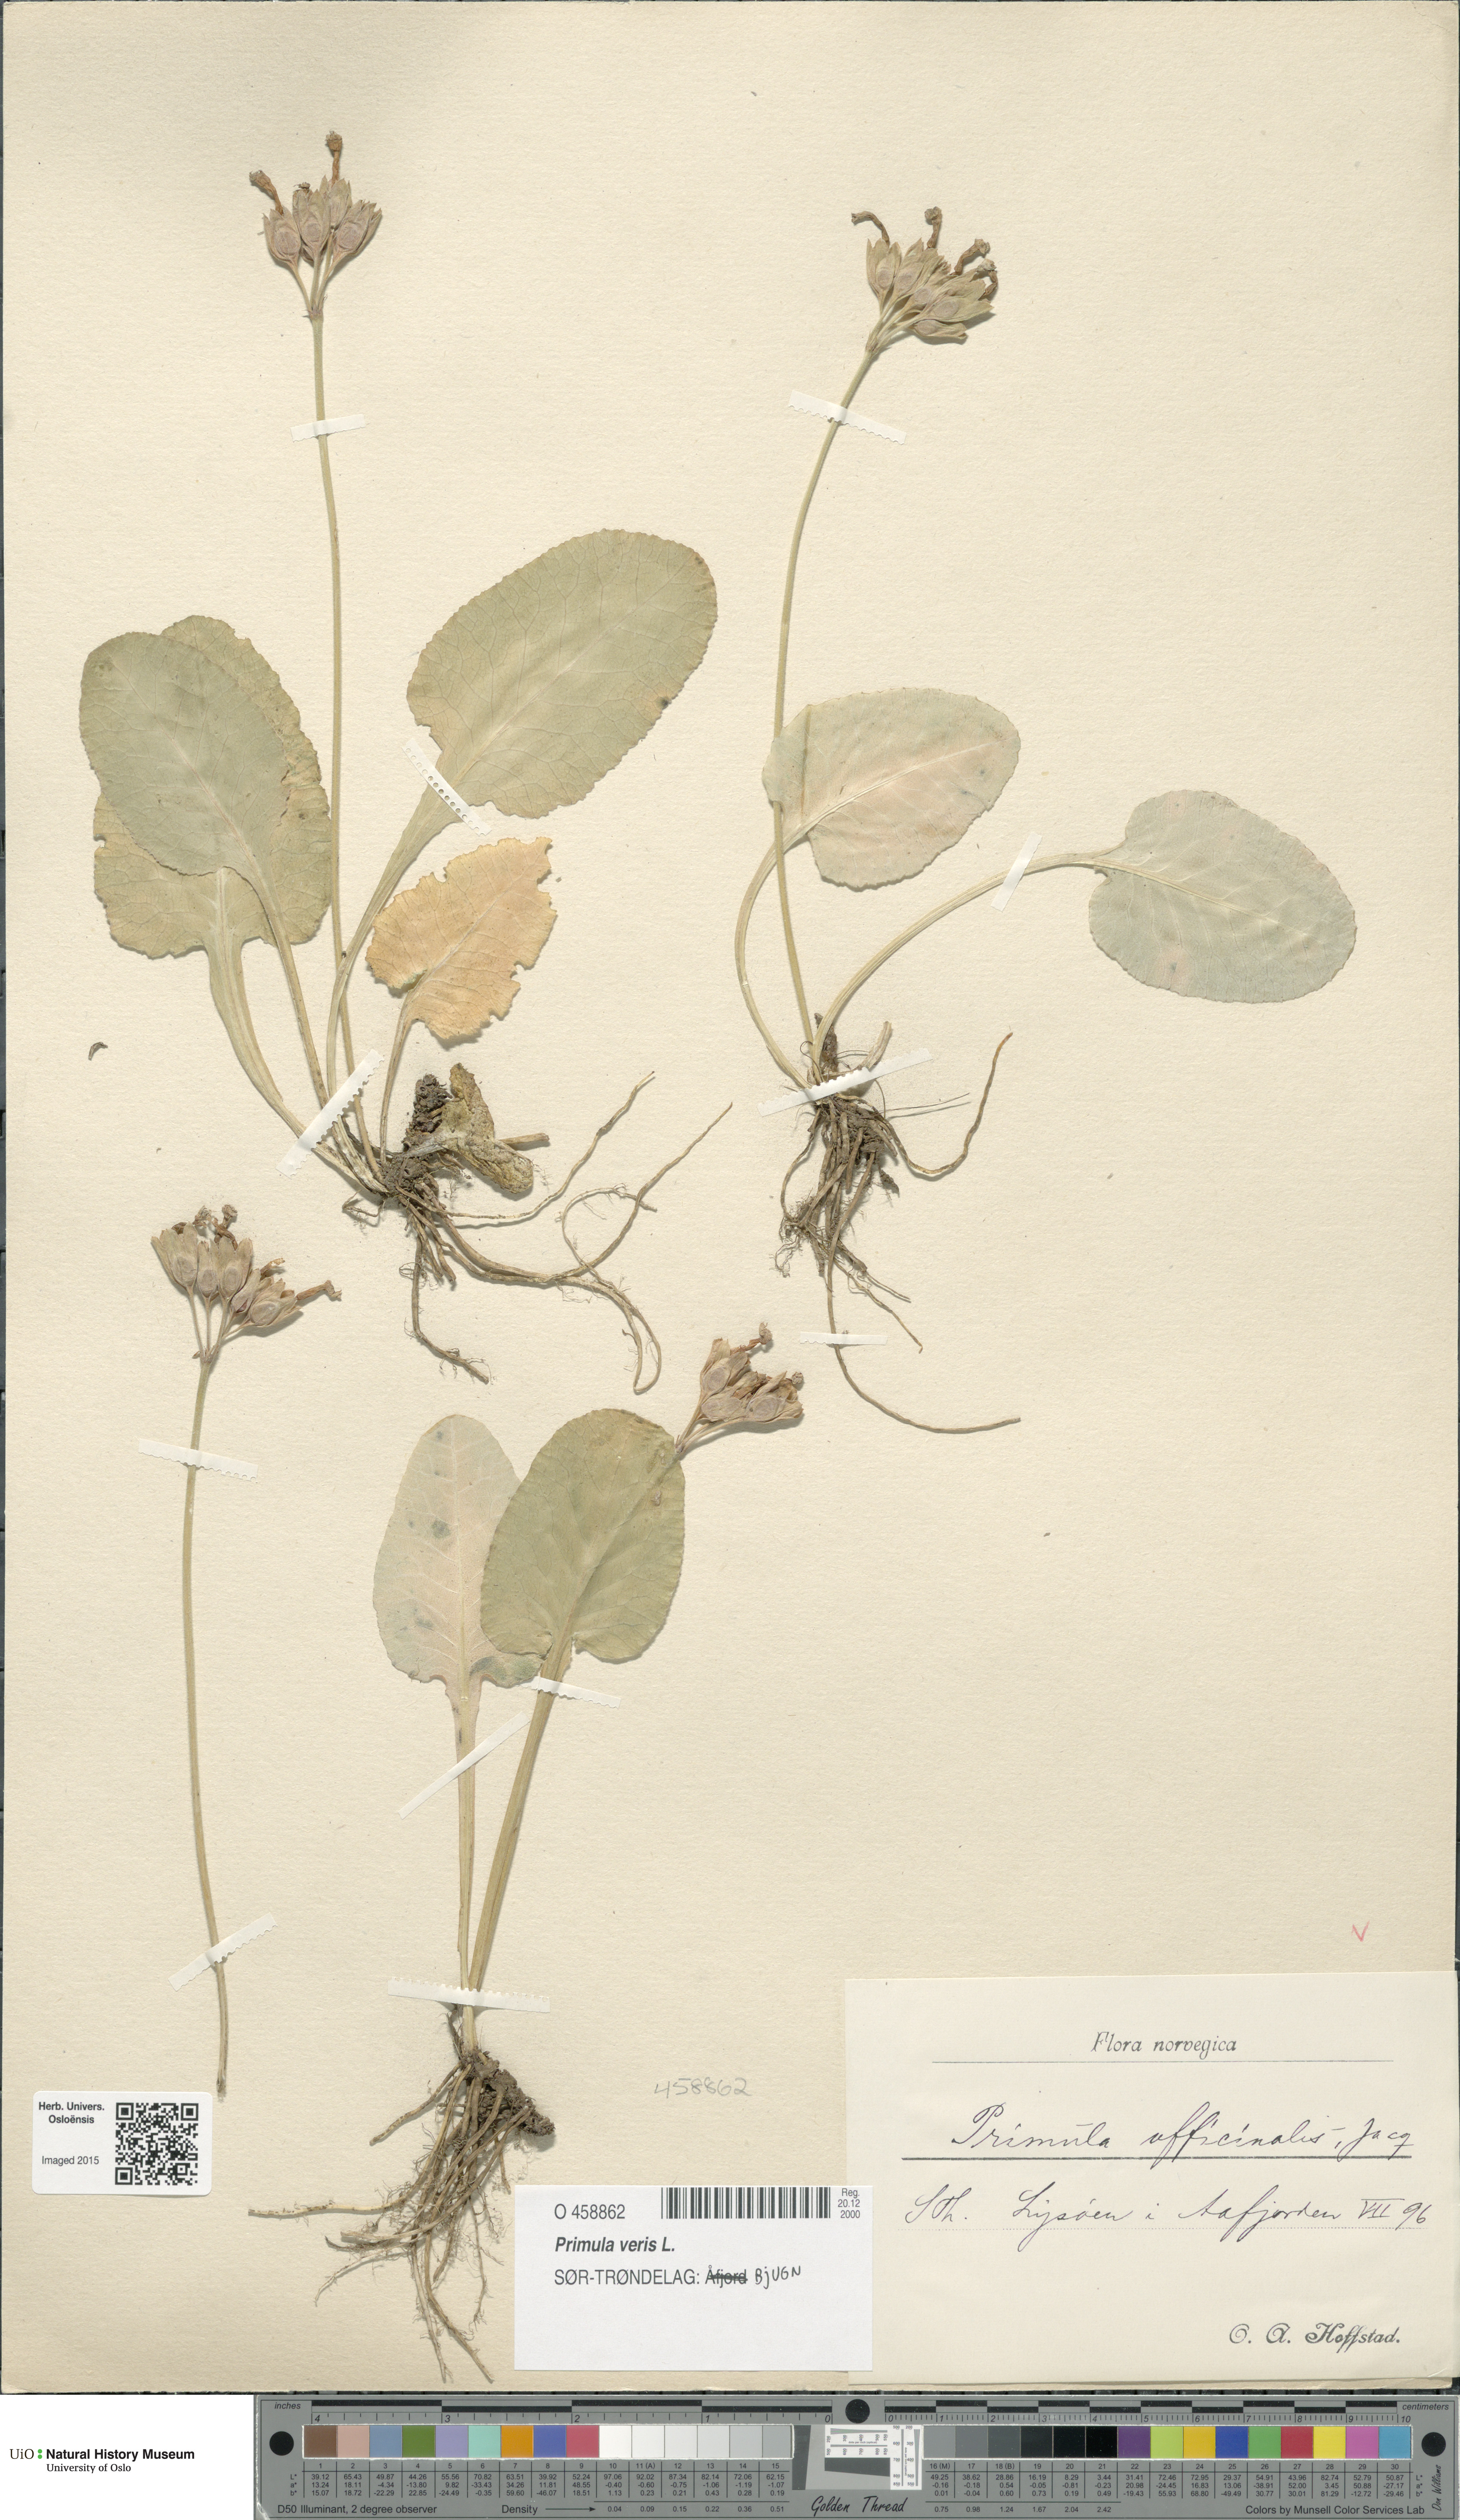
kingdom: Plantae
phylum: Tracheophyta
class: Magnoliopsida
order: Ericales
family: Primulaceae
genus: Primula
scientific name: Primula veris
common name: Cowslip
